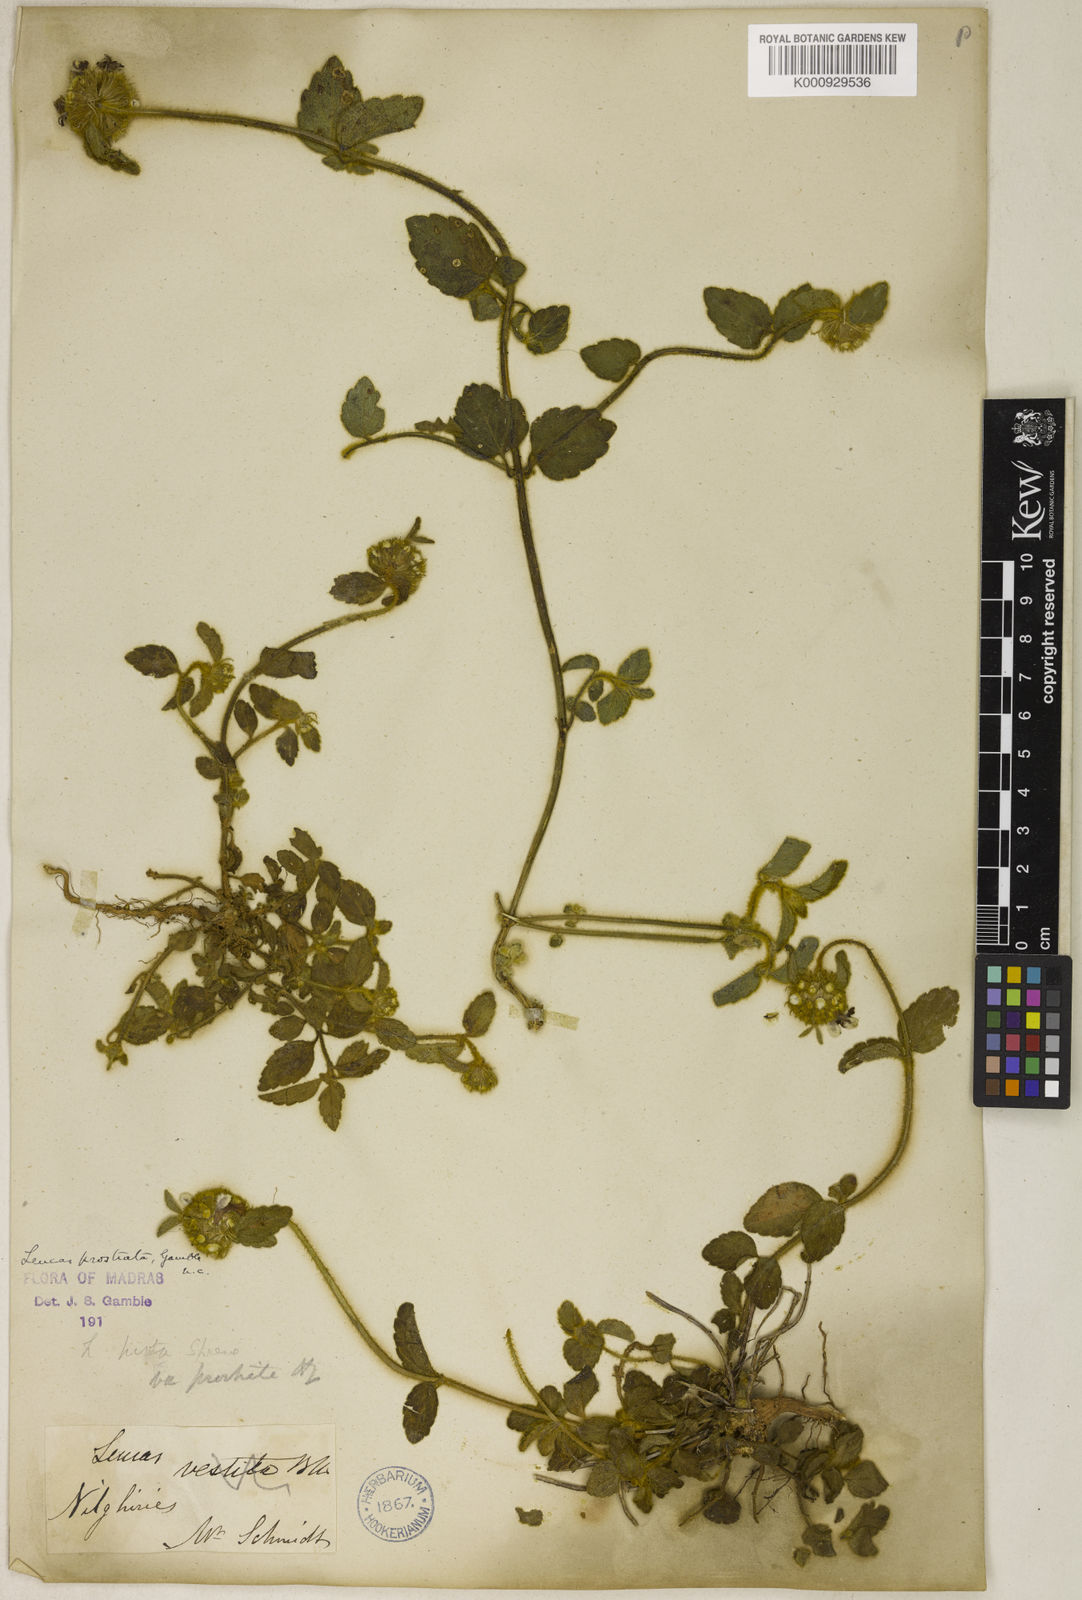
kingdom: Plantae
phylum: Tracheophyta
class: Magnoliopsida
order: Lamiales
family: Lamiaceae
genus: Leucas
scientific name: Leucas hirta
